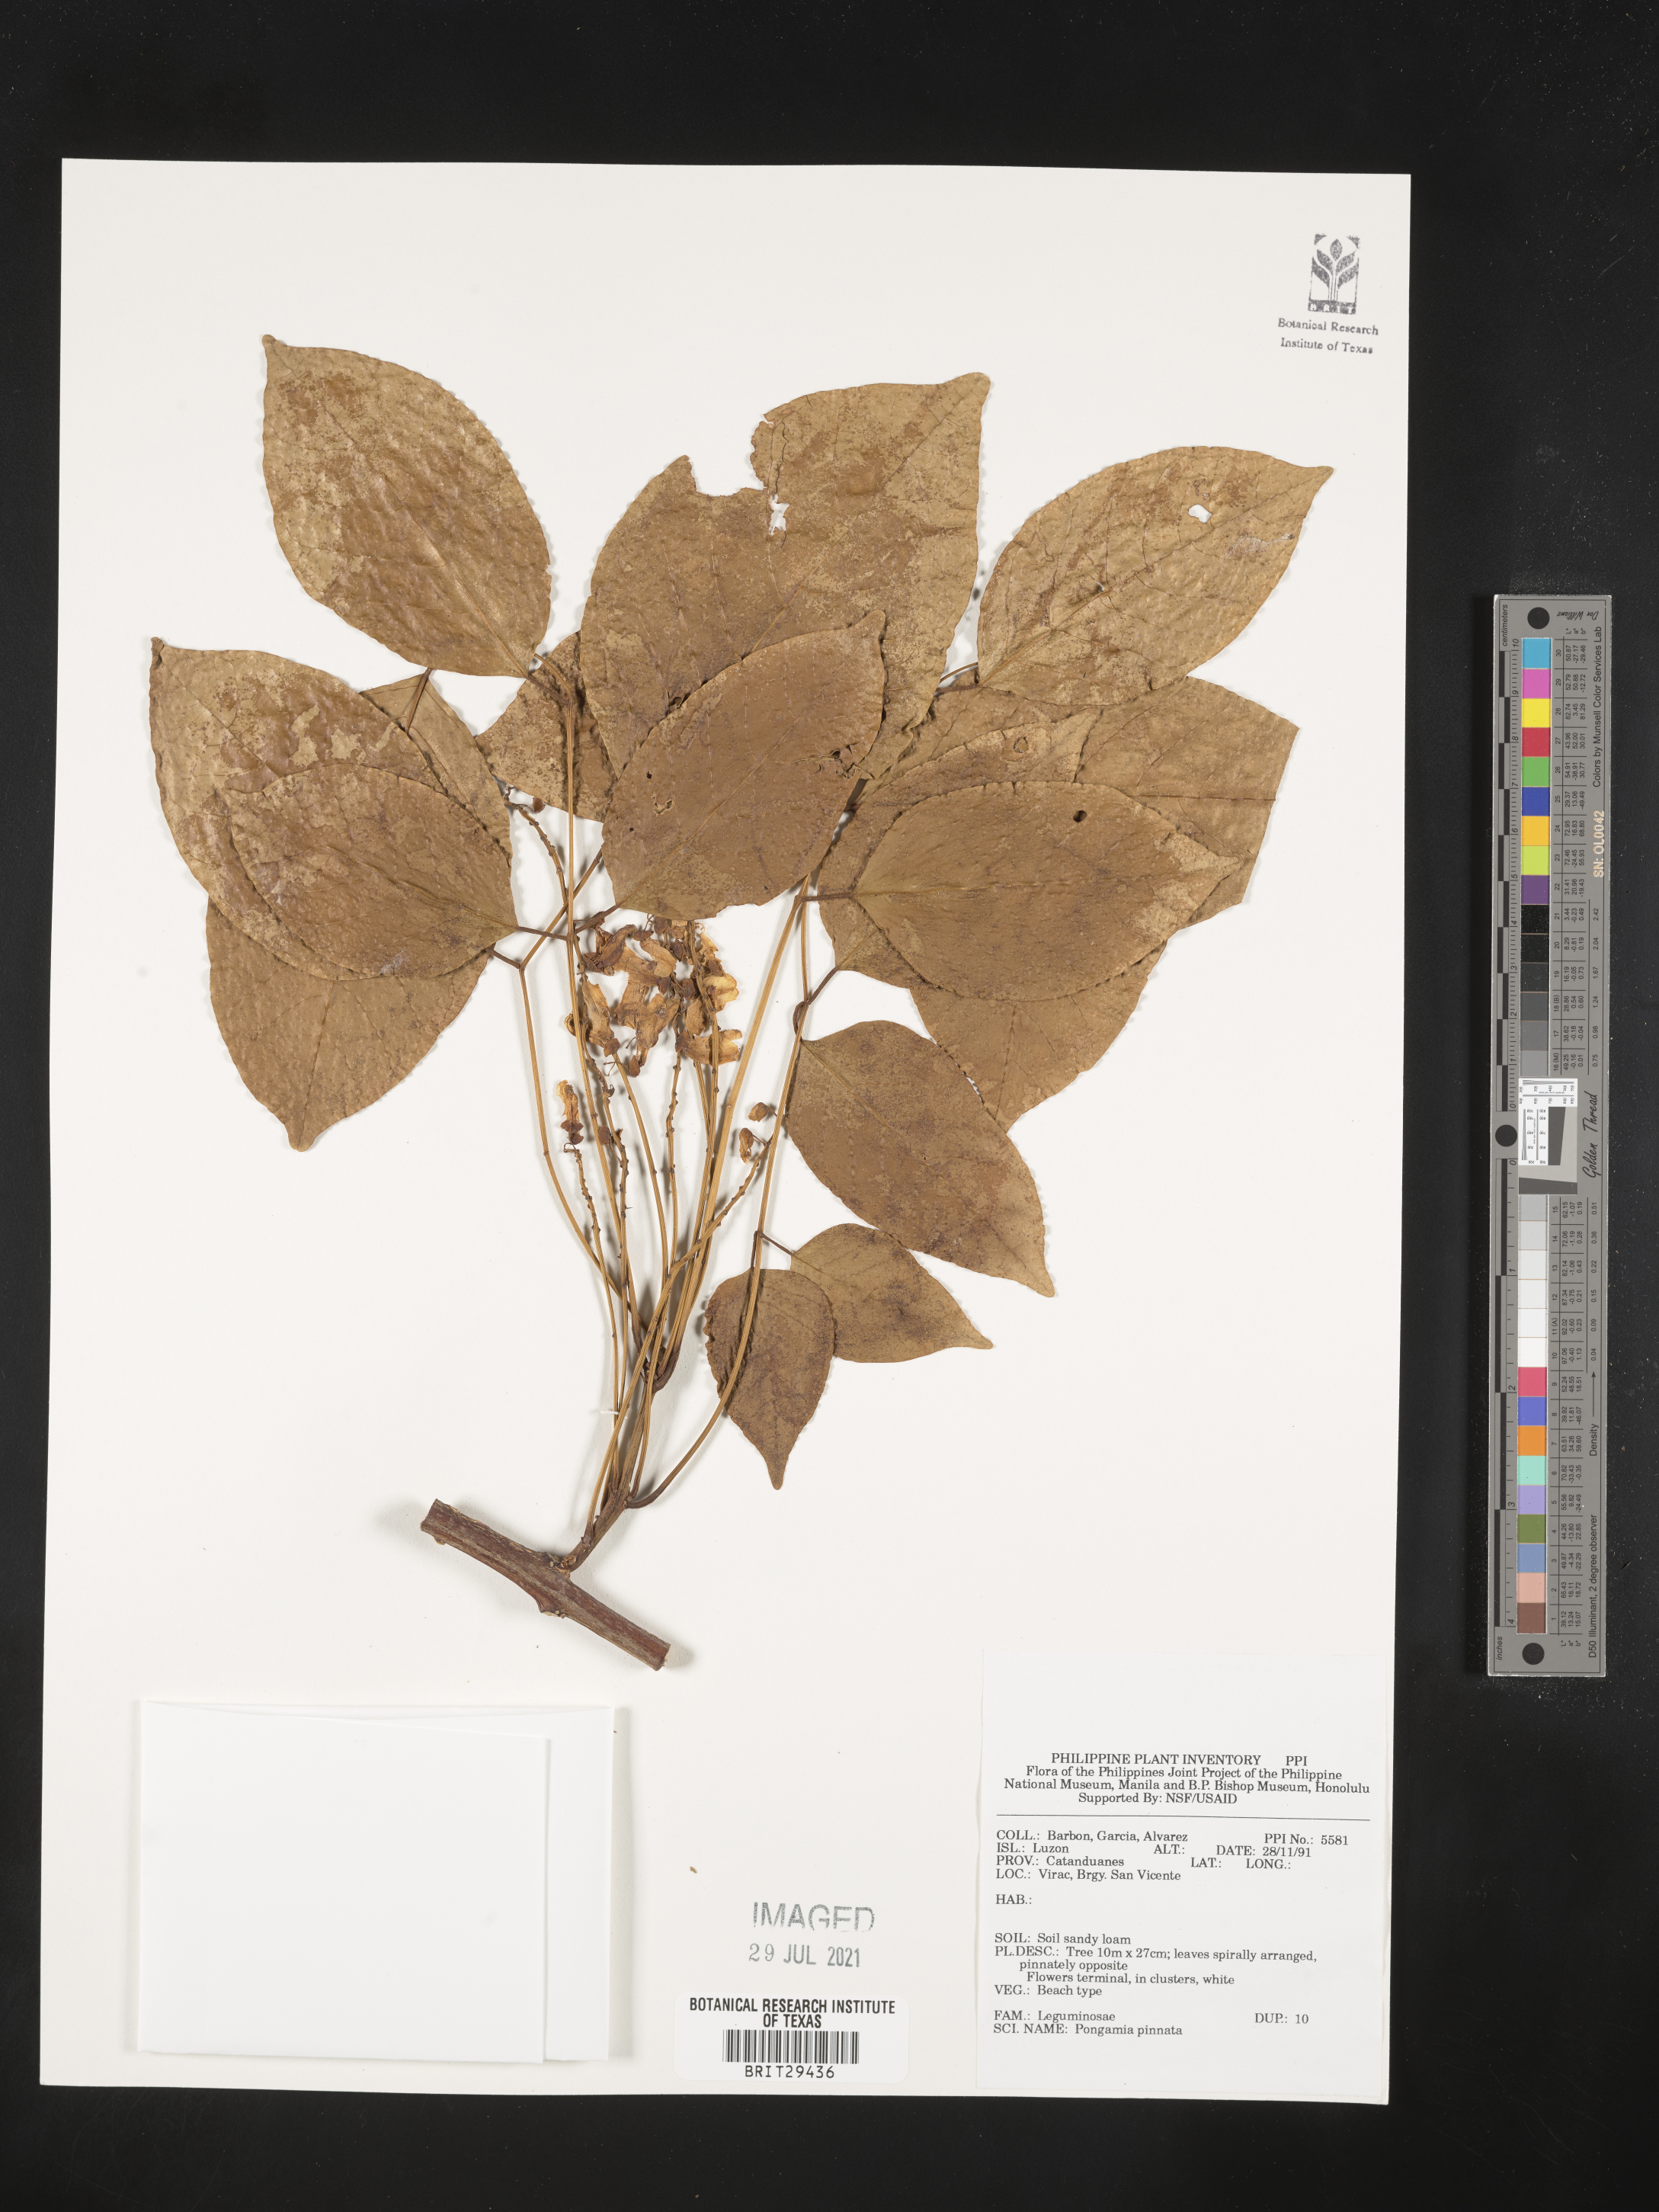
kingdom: Plantae
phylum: Tracheophyta
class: Magnoliopsida
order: Fabales
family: Fabaceae
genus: Pongamia
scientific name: Pongamia pinnata
